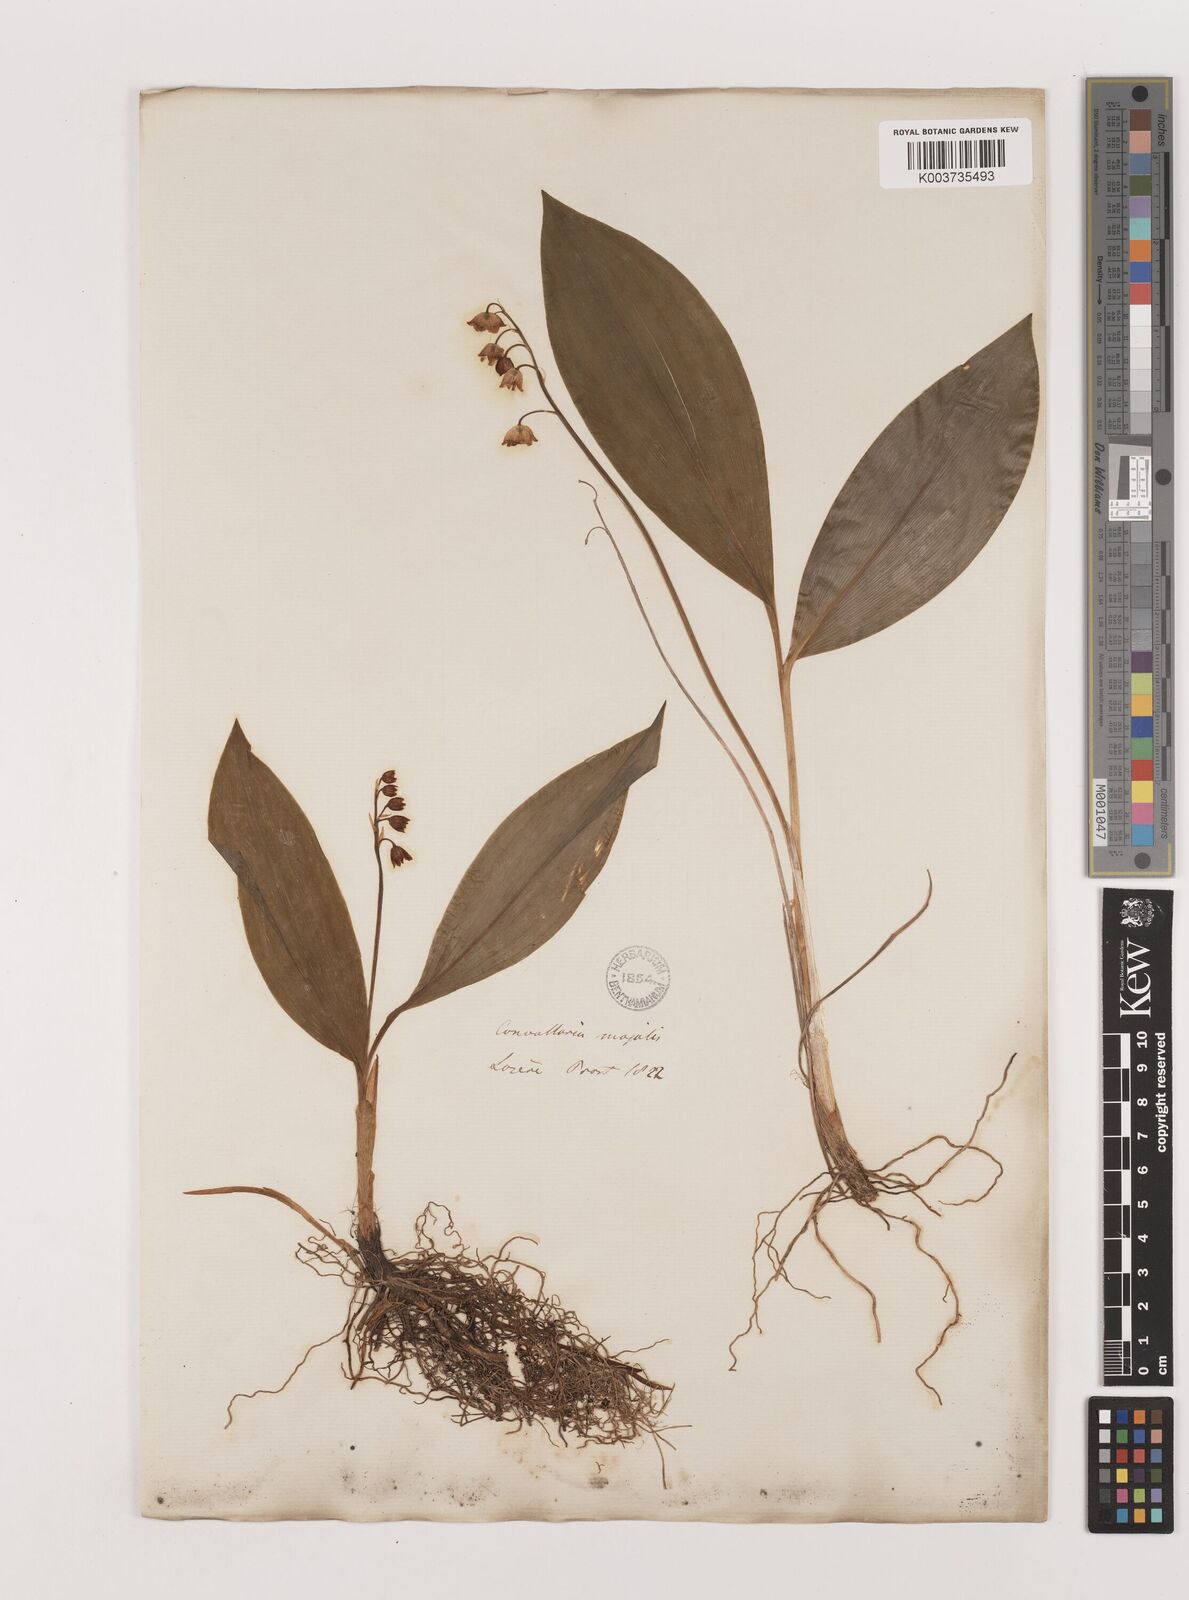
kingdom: Plantae
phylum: Tracheophyta
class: Liliopsida
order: Asparagales
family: Asparagaceae
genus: Convallaria
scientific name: Convallaria majalis
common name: Lily-of-the-valley
